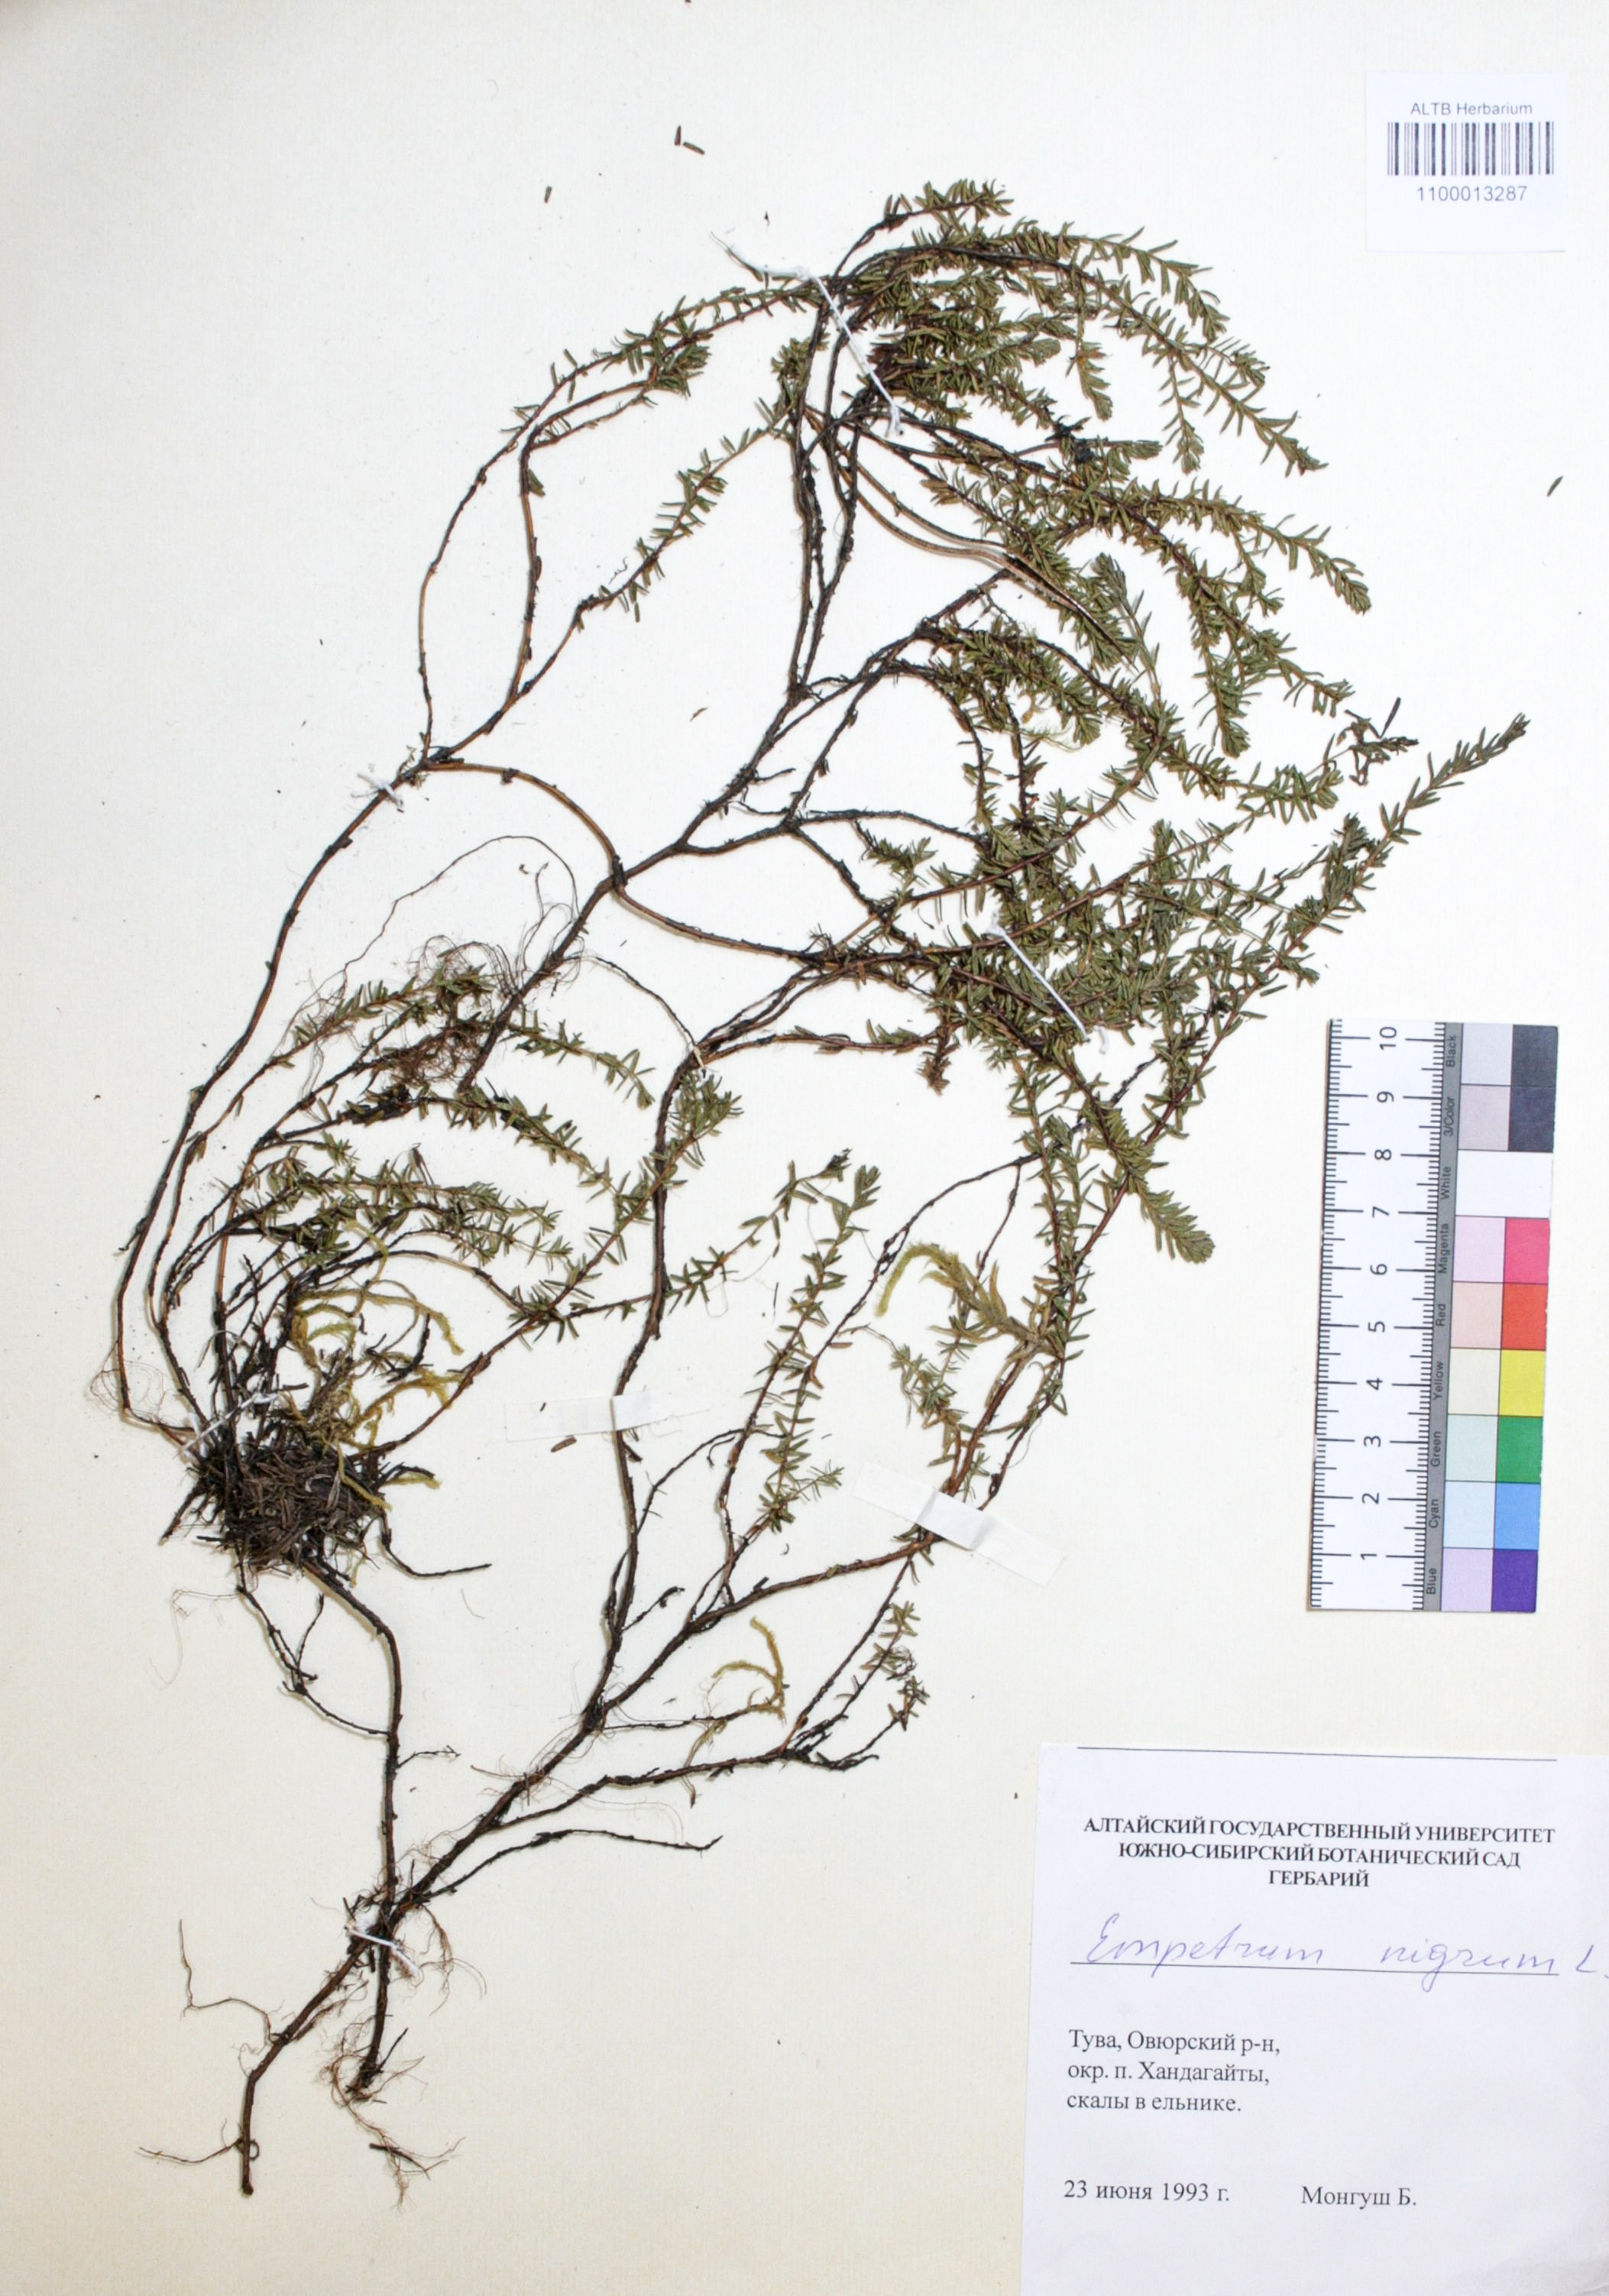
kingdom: Plantae
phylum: Tracheophyta
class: Magnoliopsida
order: Ericales
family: Ericaceae
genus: Empetrum
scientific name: Empetrum nigrum
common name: Black crowberry
